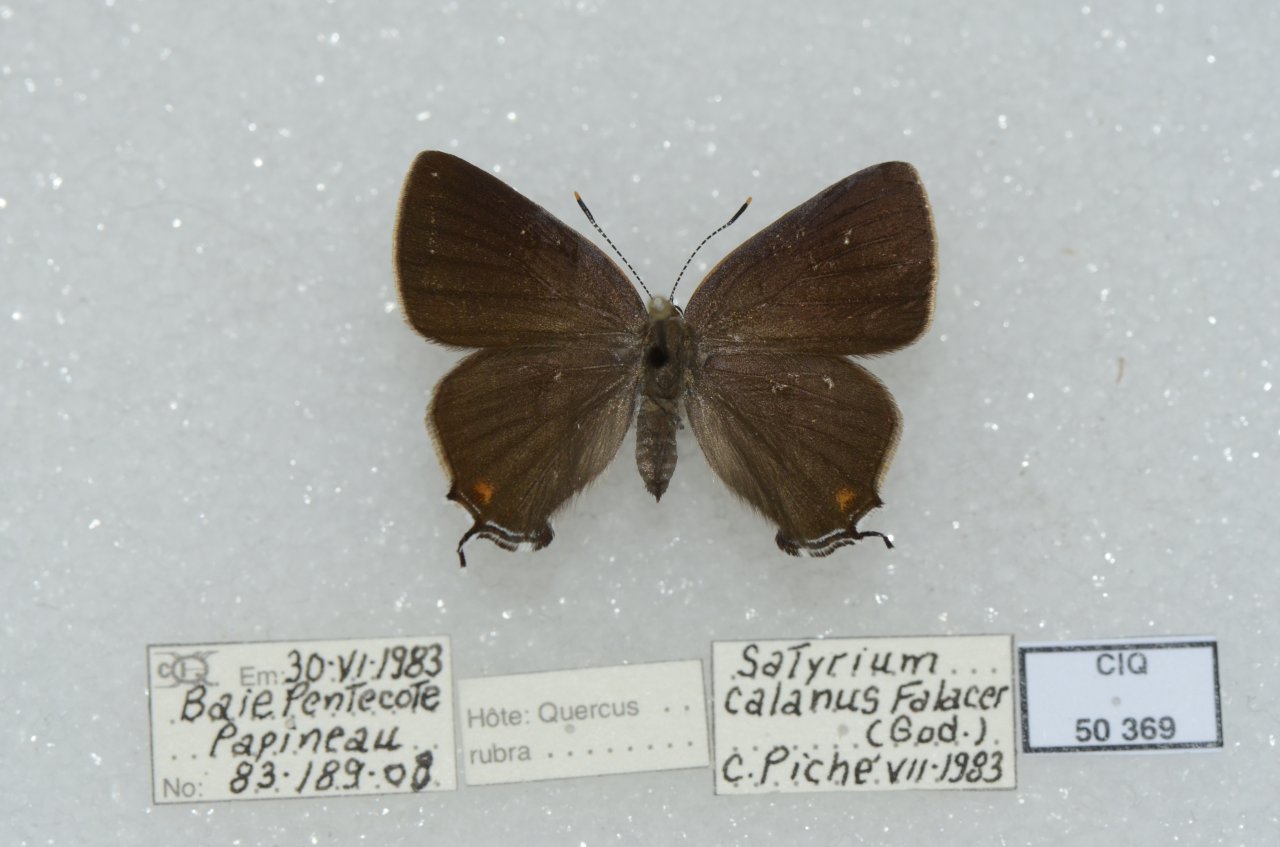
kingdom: Animalia
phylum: Arthropoda
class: Insecta
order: Lepidoptera
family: Lycaenidae
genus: Satyrium
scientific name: Satyrium calanus
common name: Banded Hairstreak
